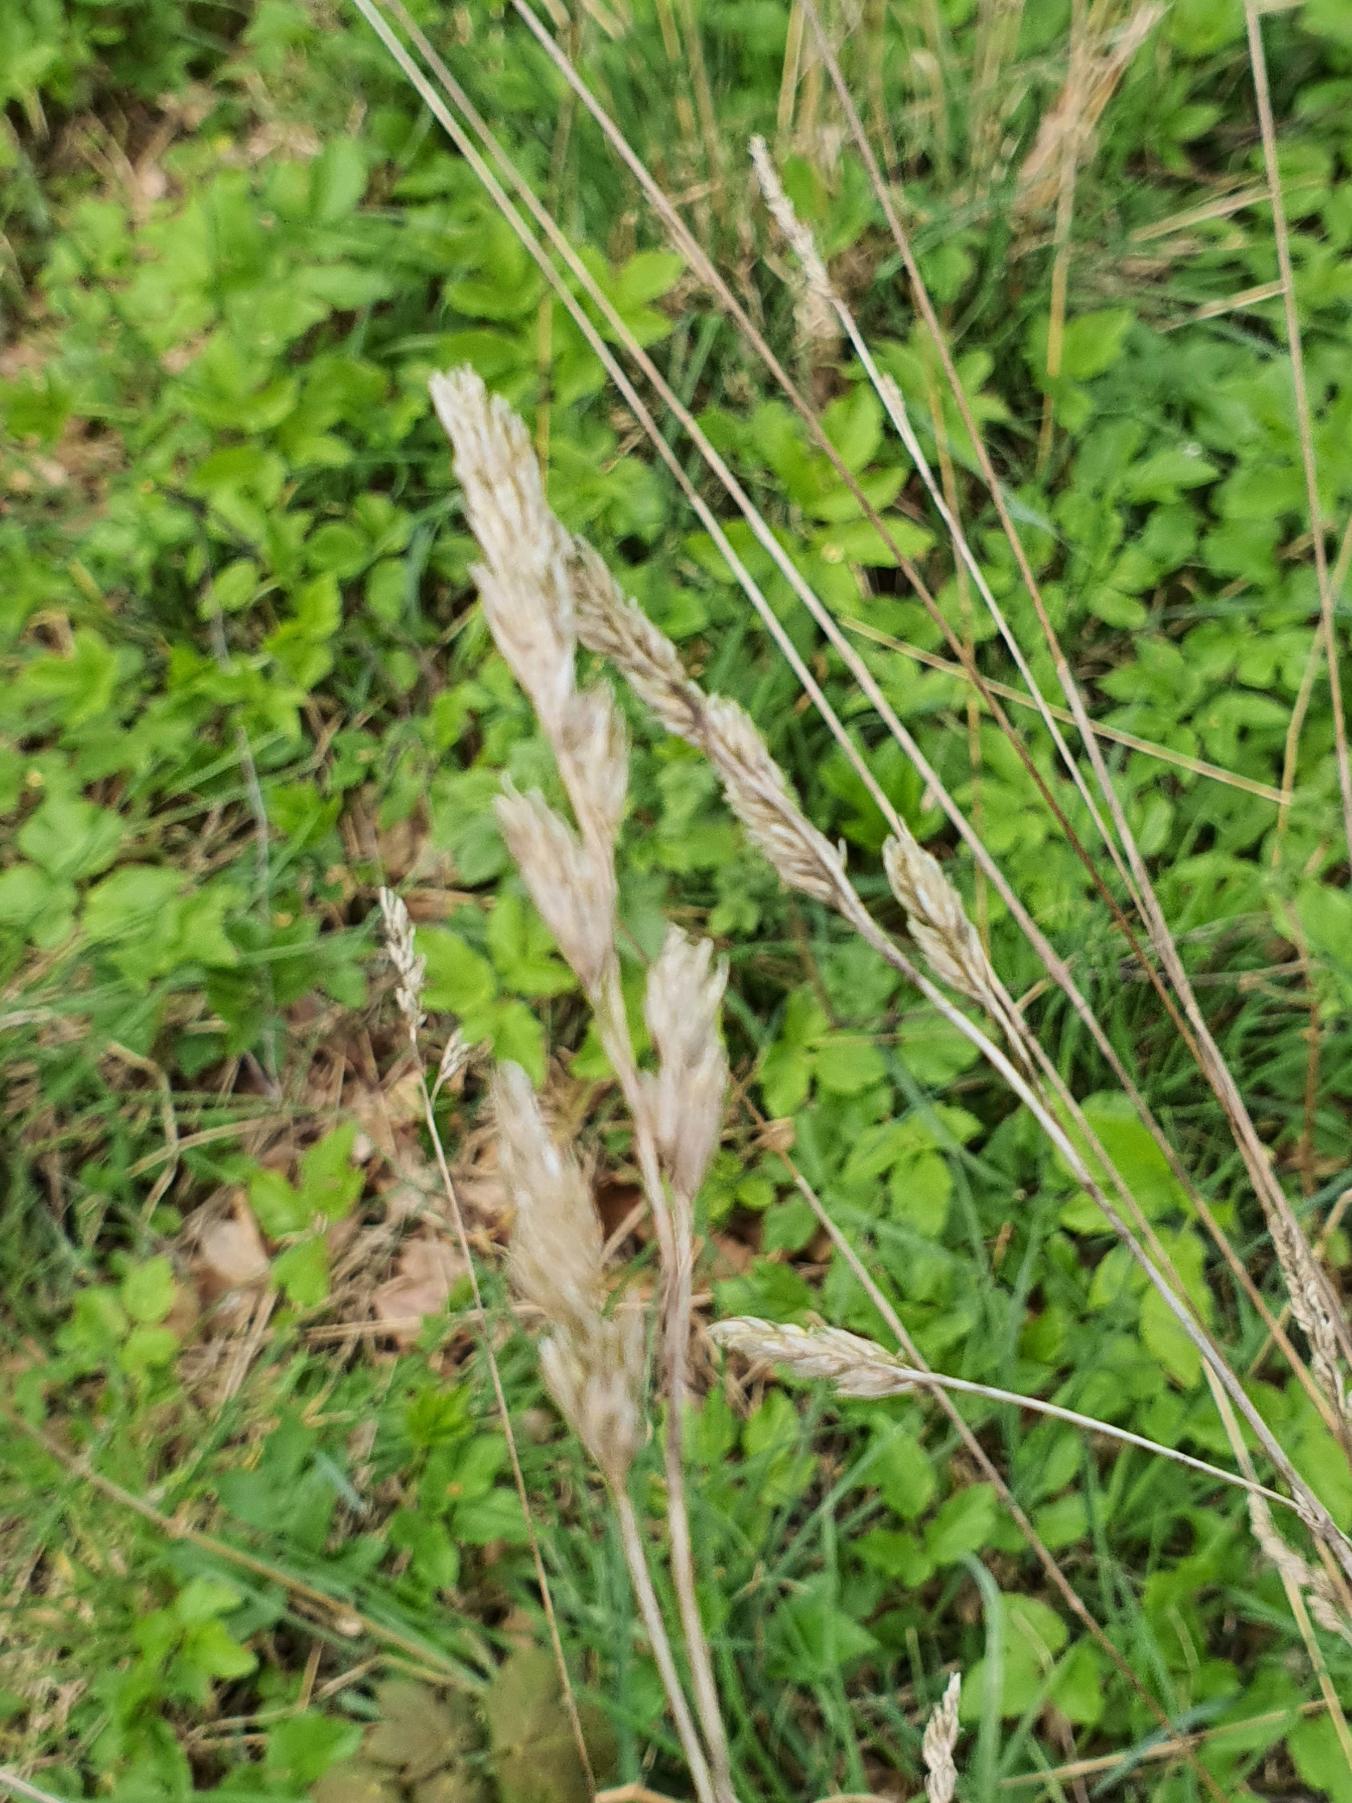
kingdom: Plantae
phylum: Tracheophyta
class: Liliopsida
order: Poales
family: Poaceae
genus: Dactylis
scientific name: Dactylis glomerata
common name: Almindelig hundegræs
